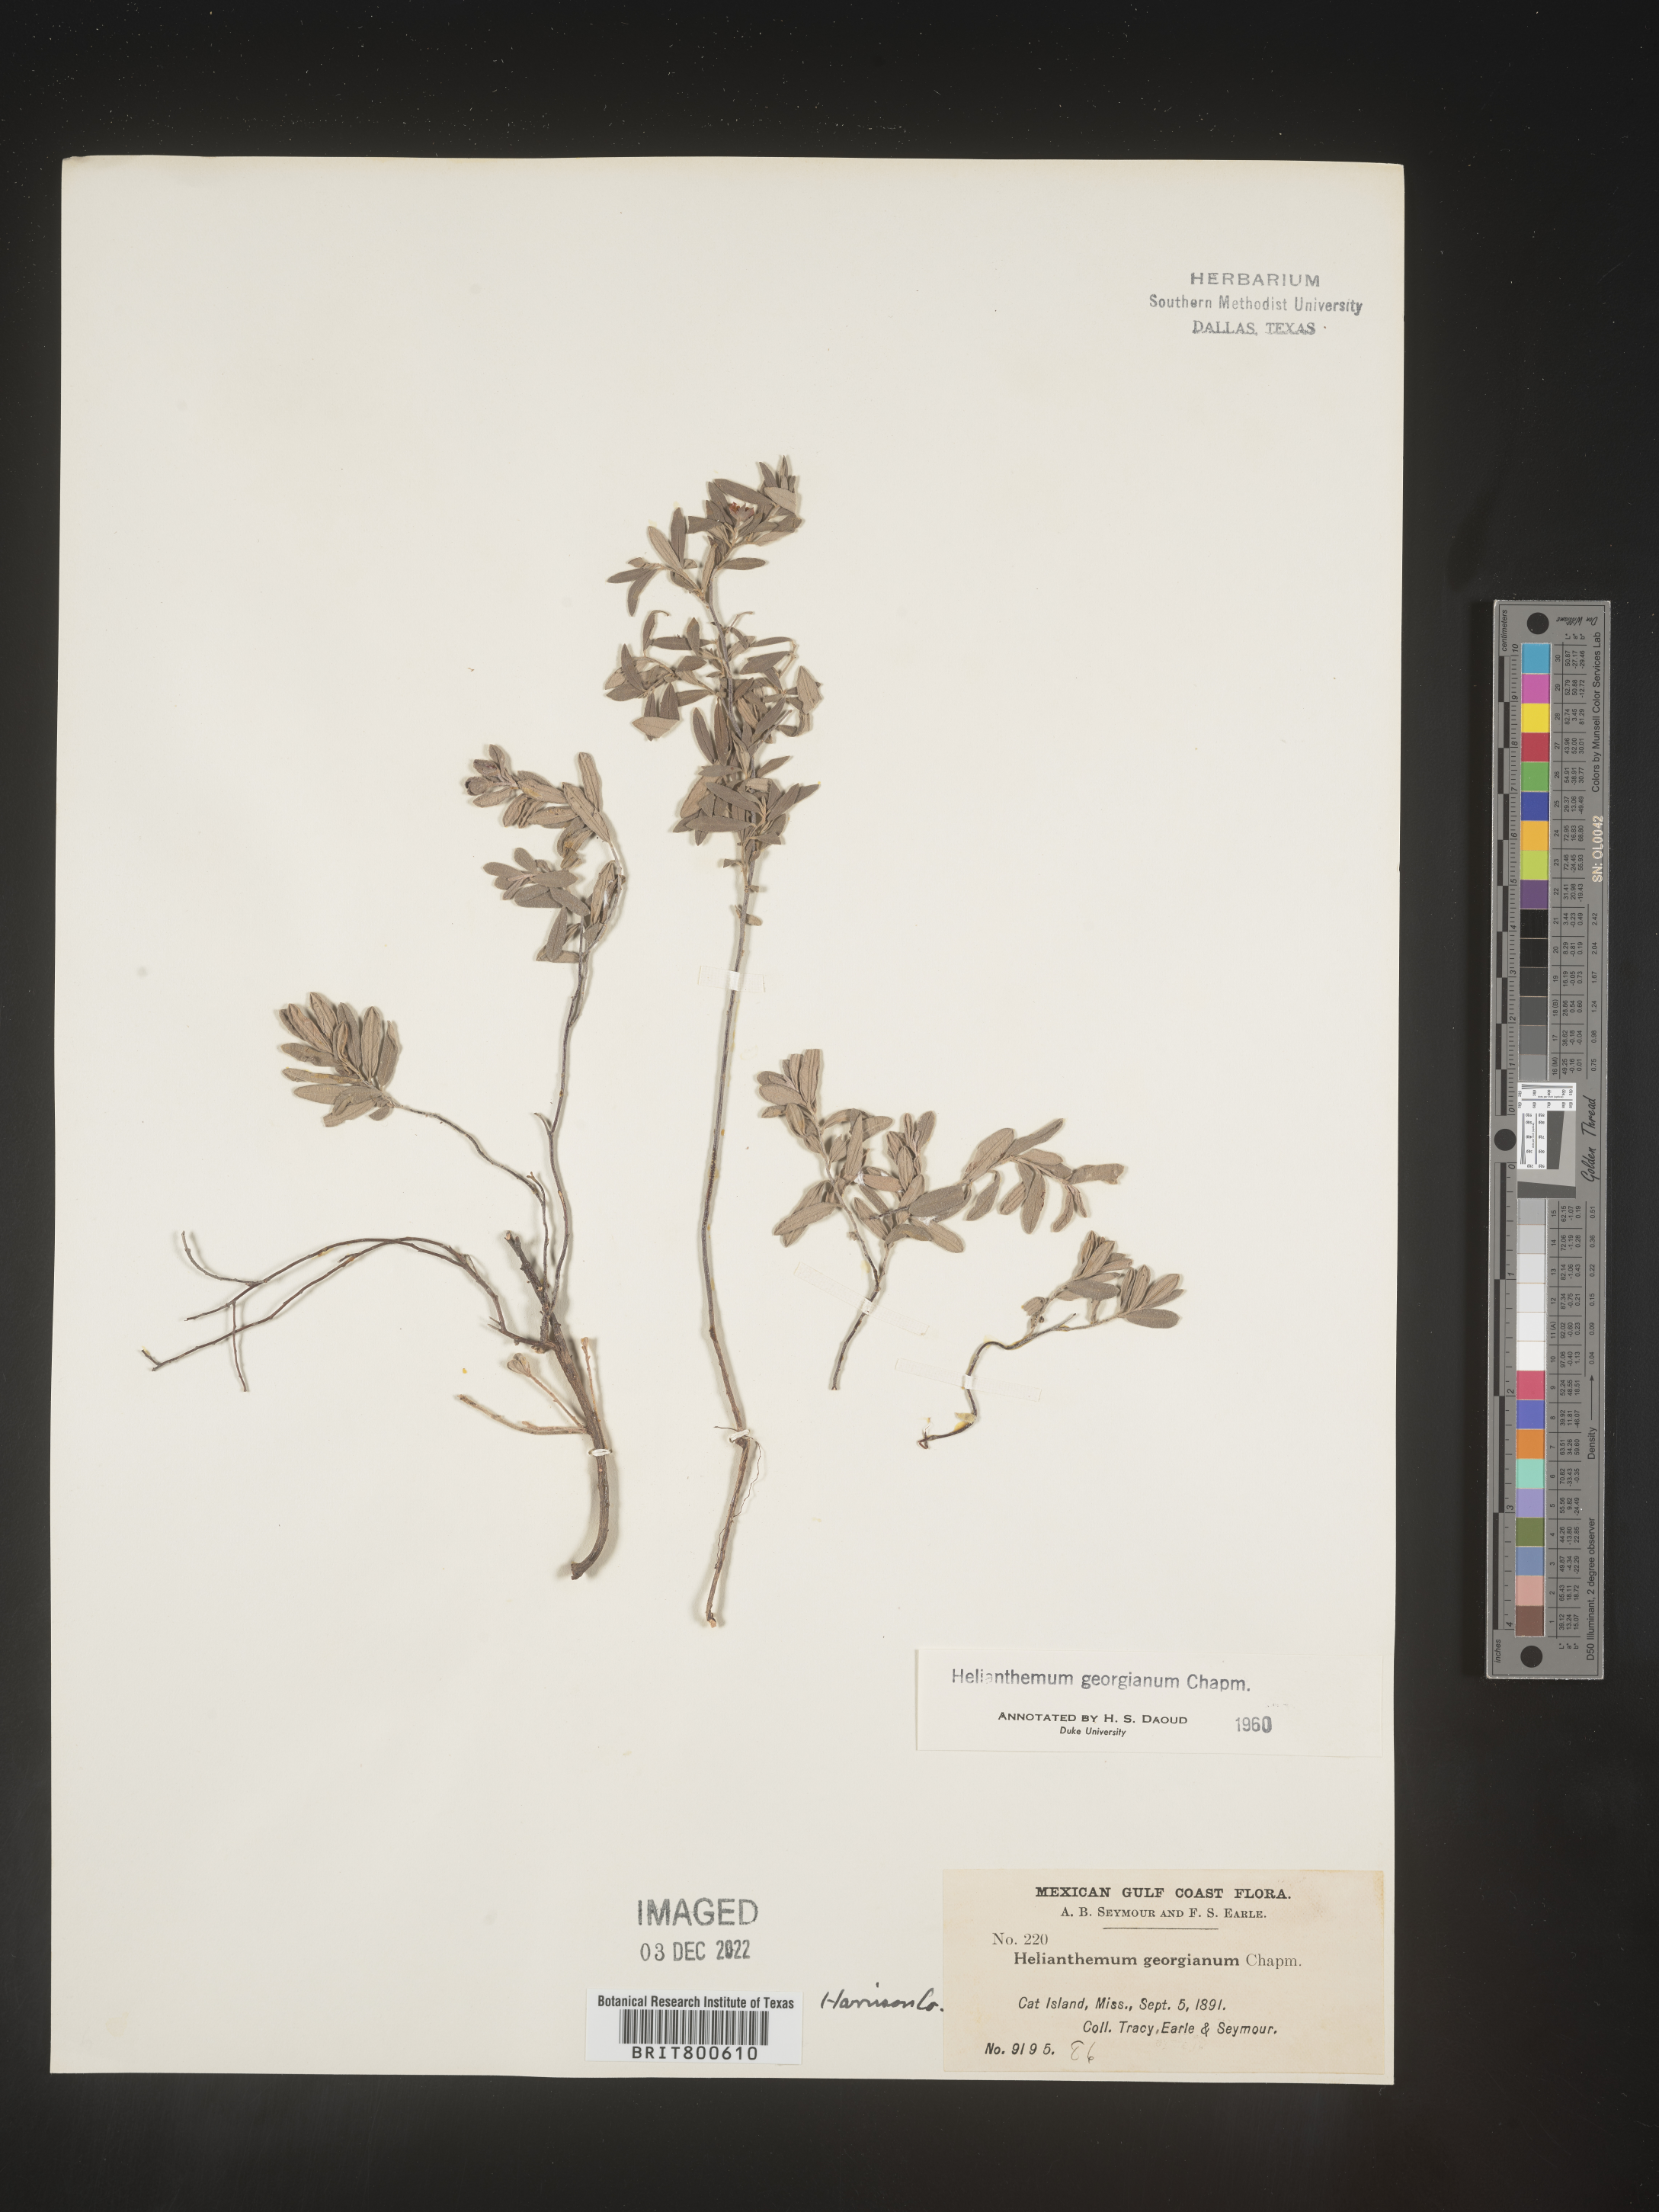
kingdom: Plantae
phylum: Tracheophyta
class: Magnoliopsida
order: Malvales
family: Cistaceae
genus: Crocanthemum
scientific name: Crocanthemum georgianum
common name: Georgia frostweed
